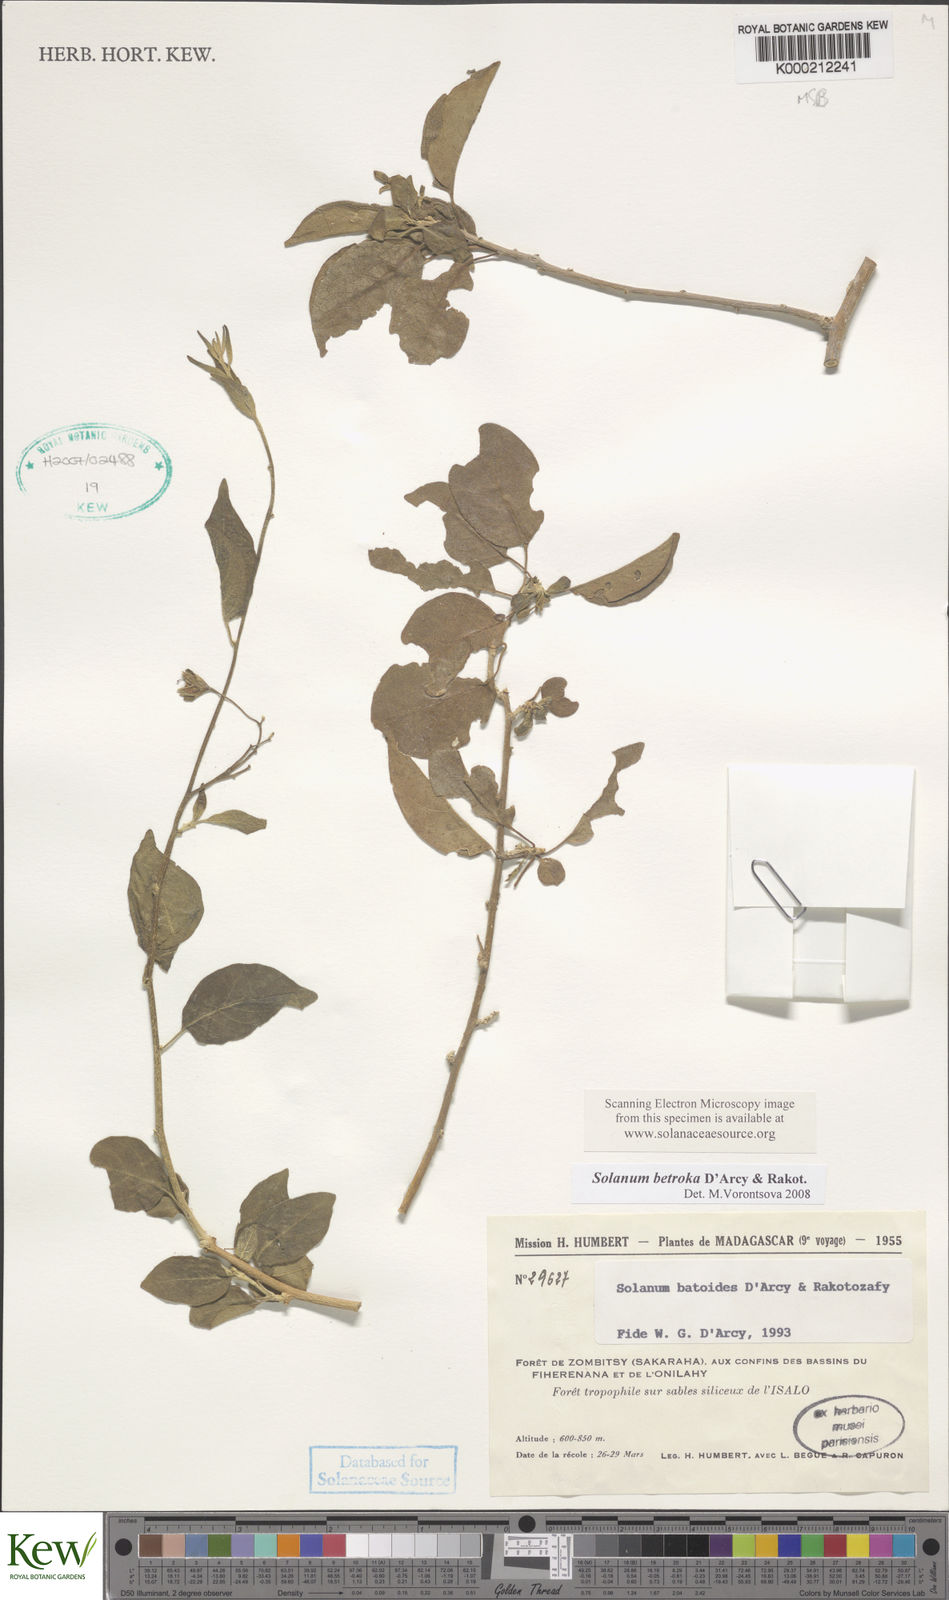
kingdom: Plantae
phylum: Tracheophyta
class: Magnoliopsida
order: Solanales
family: Solanaceae
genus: Solanum
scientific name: Solanum batoides
